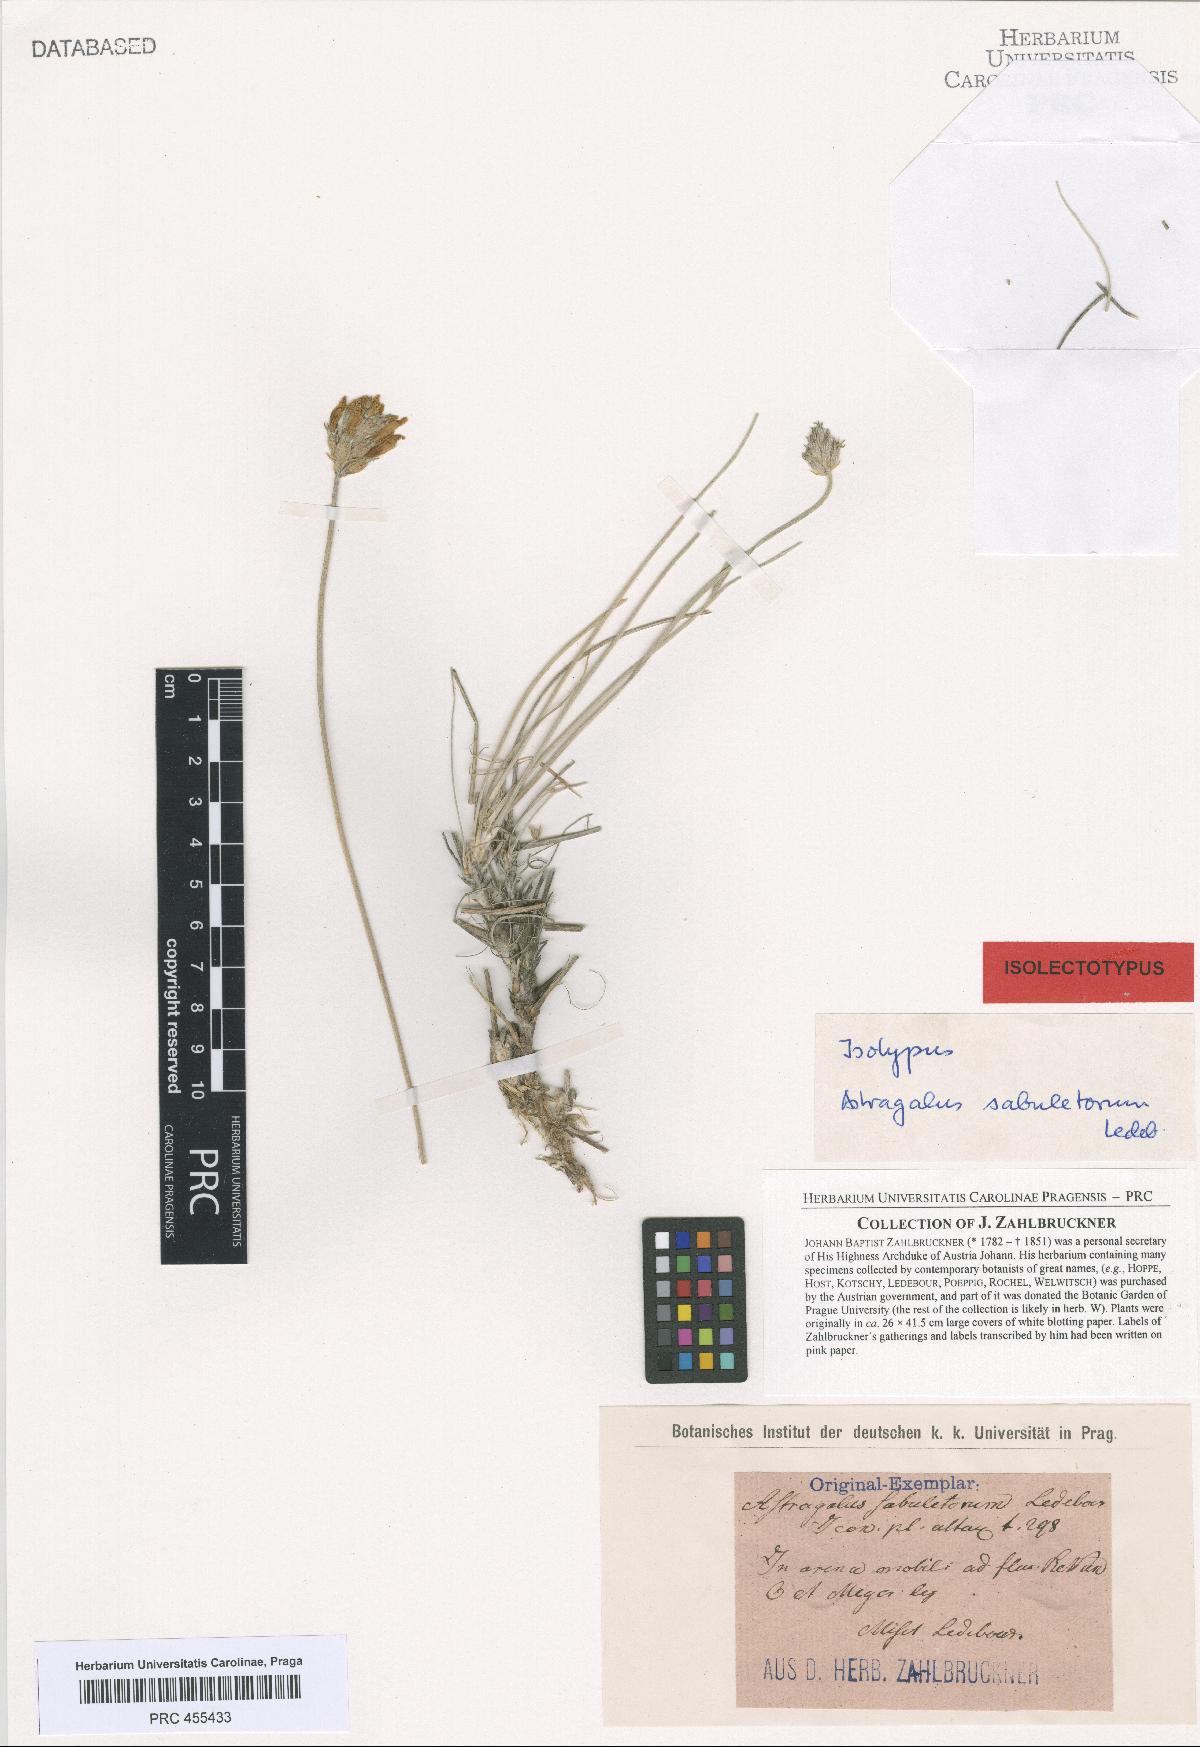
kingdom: Plantae
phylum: Tracheophyta
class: Magnoliopsida
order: Fabales
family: Fabaceae
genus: Astragalus
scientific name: Astragalus sabuletorum
